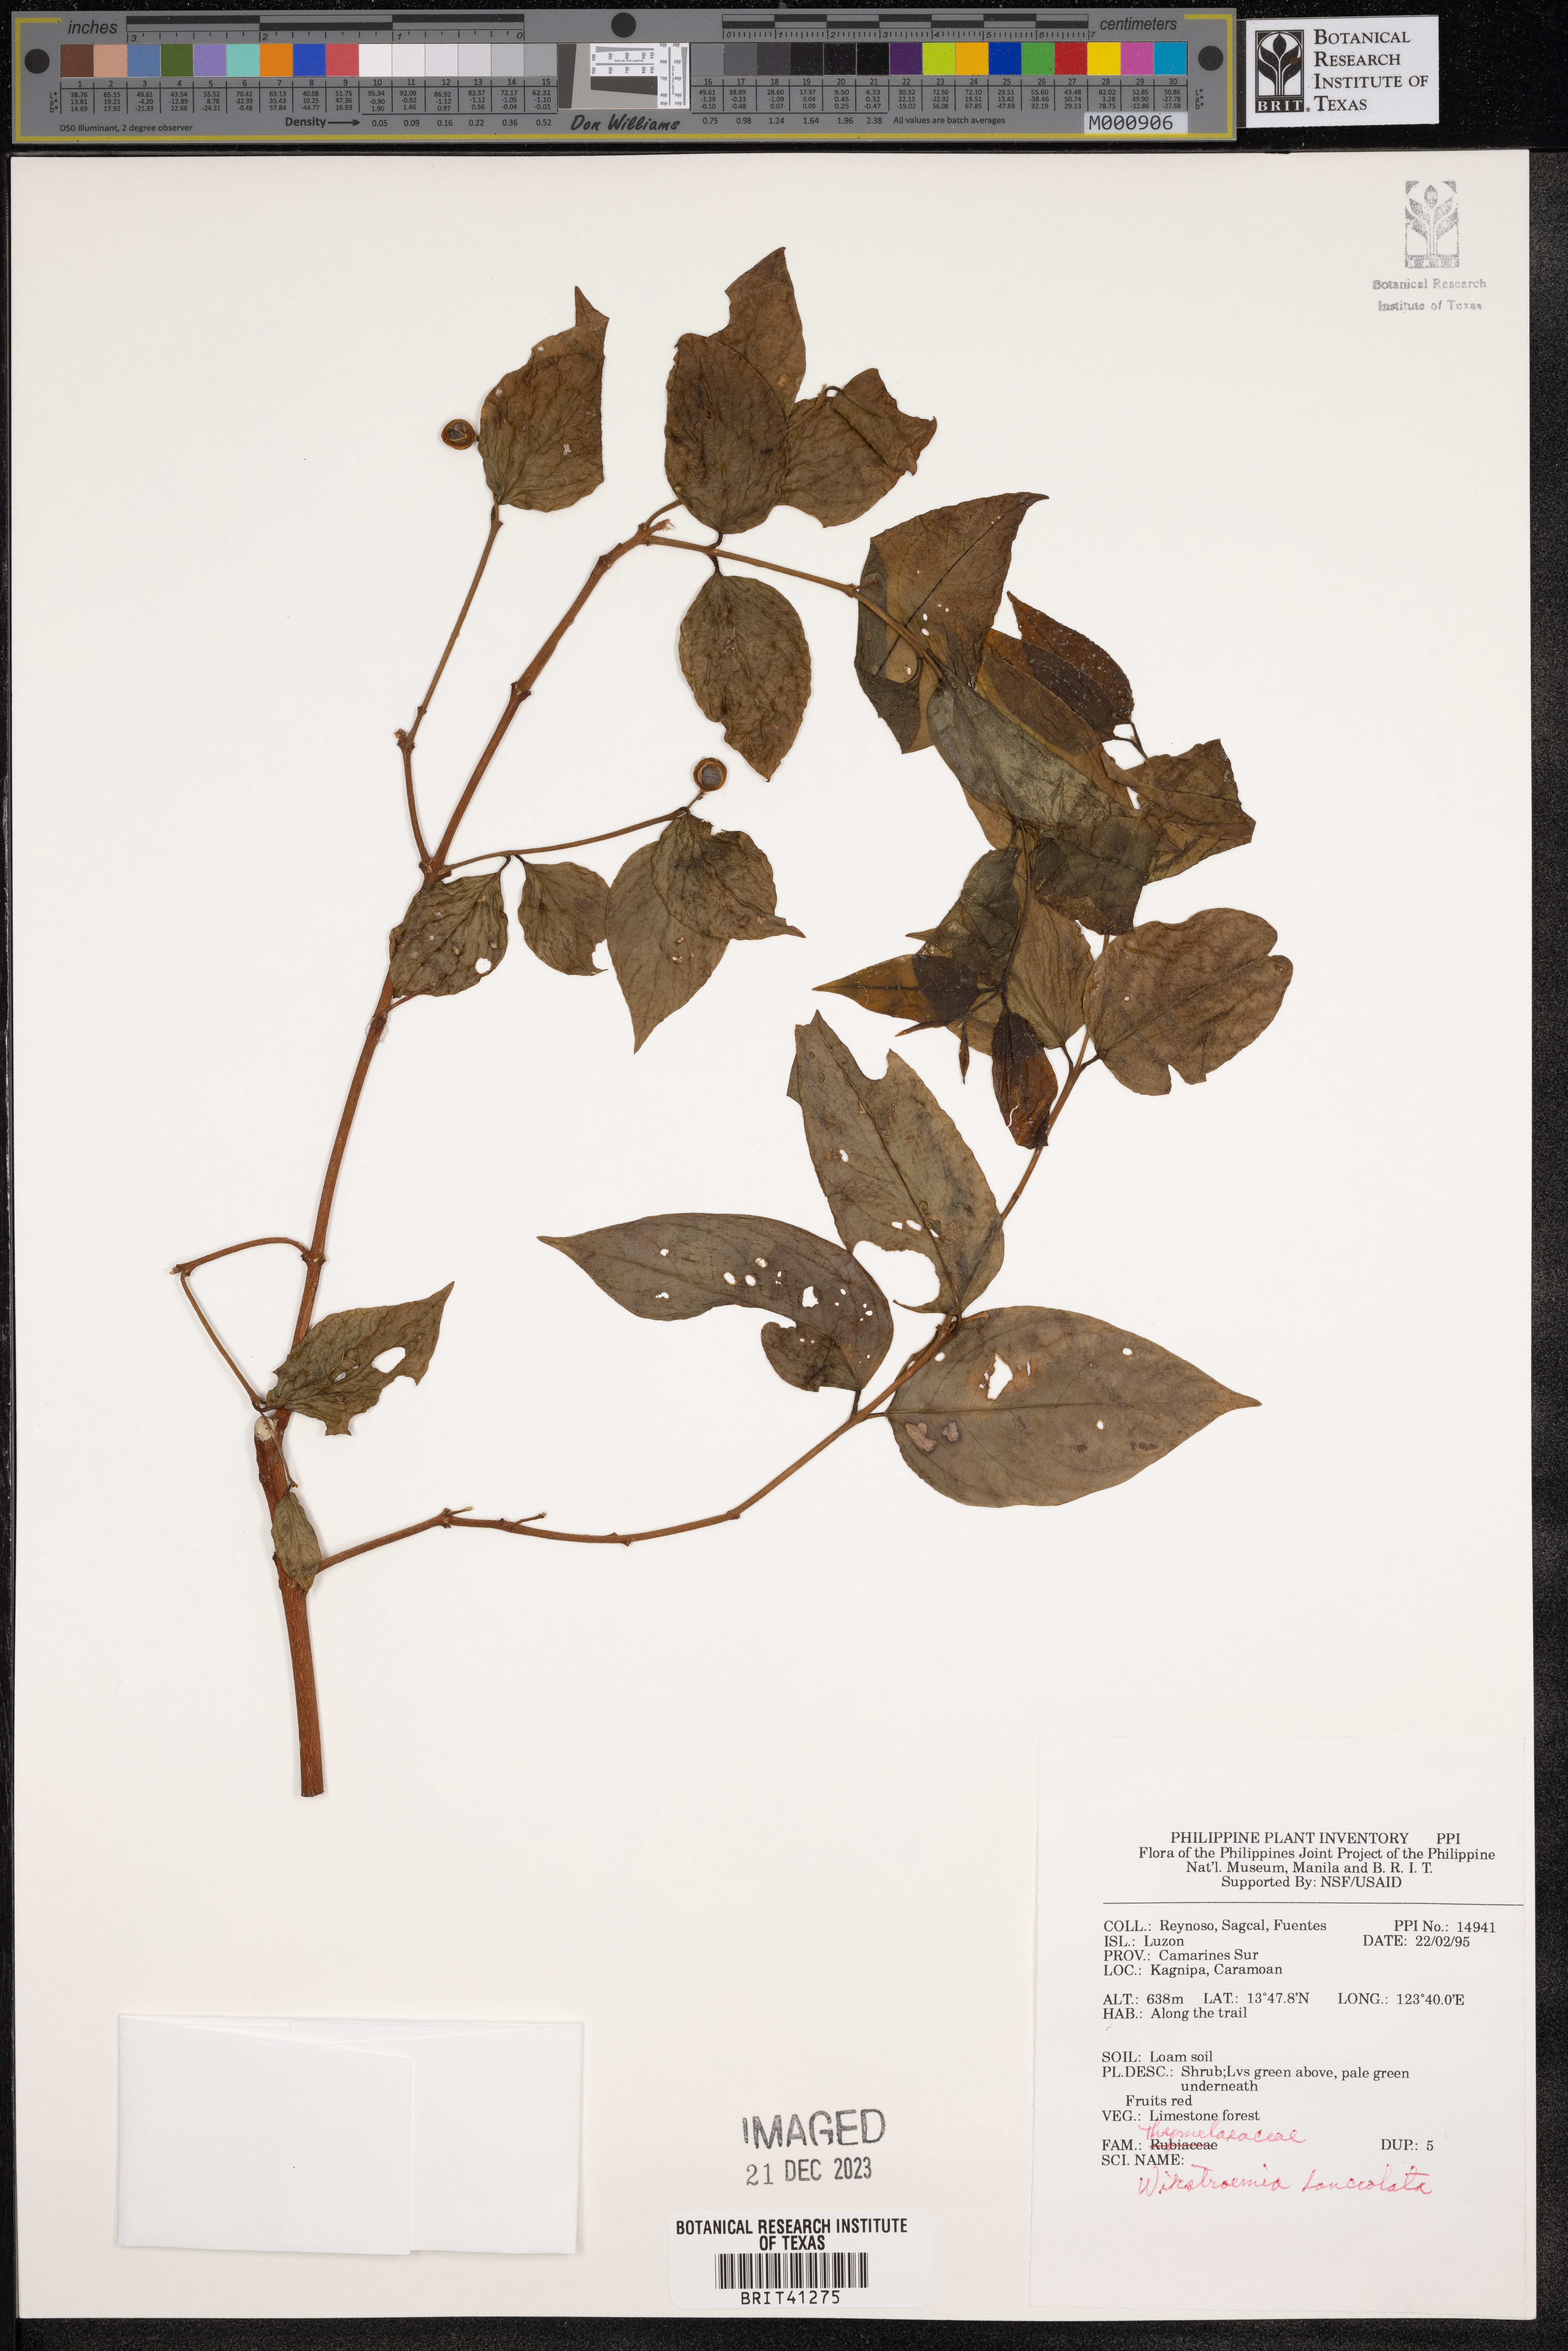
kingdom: Plantae
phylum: Tracheophyta
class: Magnoliopsida
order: Malvales
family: Thymelaeaceae
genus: Wikstroemia
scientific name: Wikstroemia lanceolata
